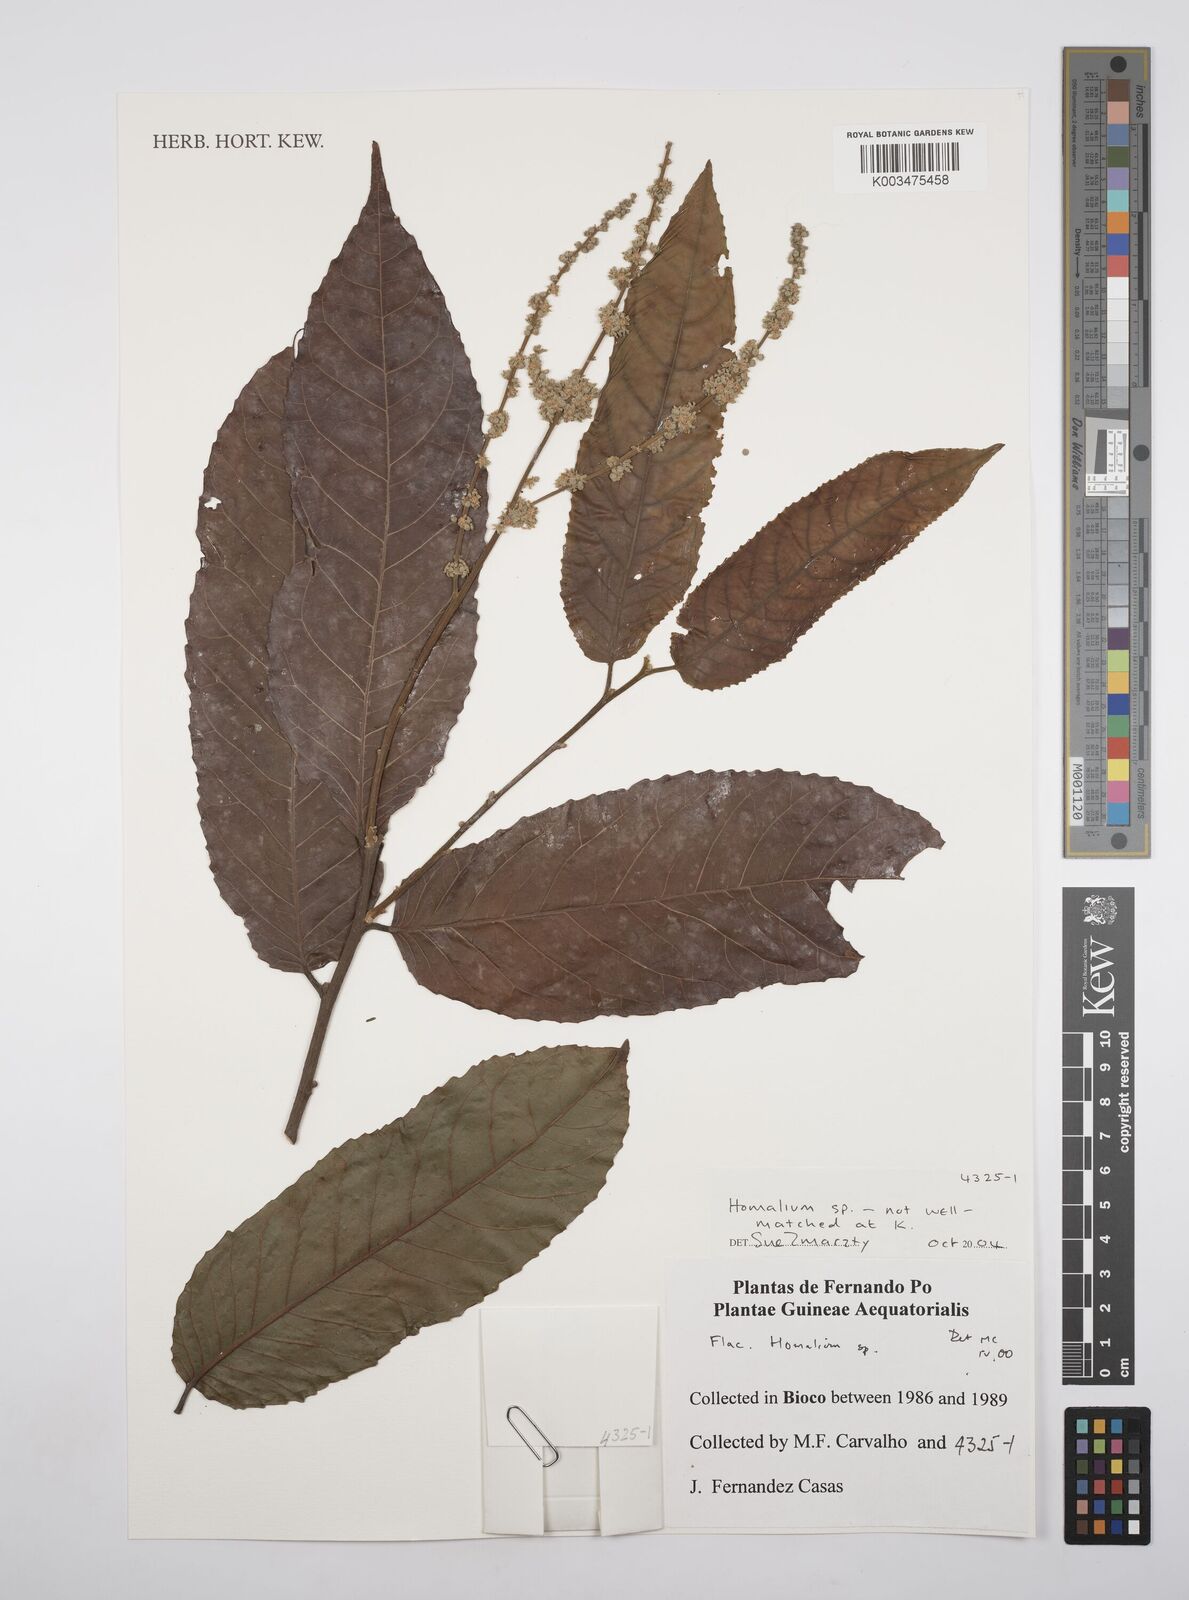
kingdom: Plantae
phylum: Tracheophyta
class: Magnoliopsida
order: Malpighiales
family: Salicaceae
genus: Homalium
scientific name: Homalium
